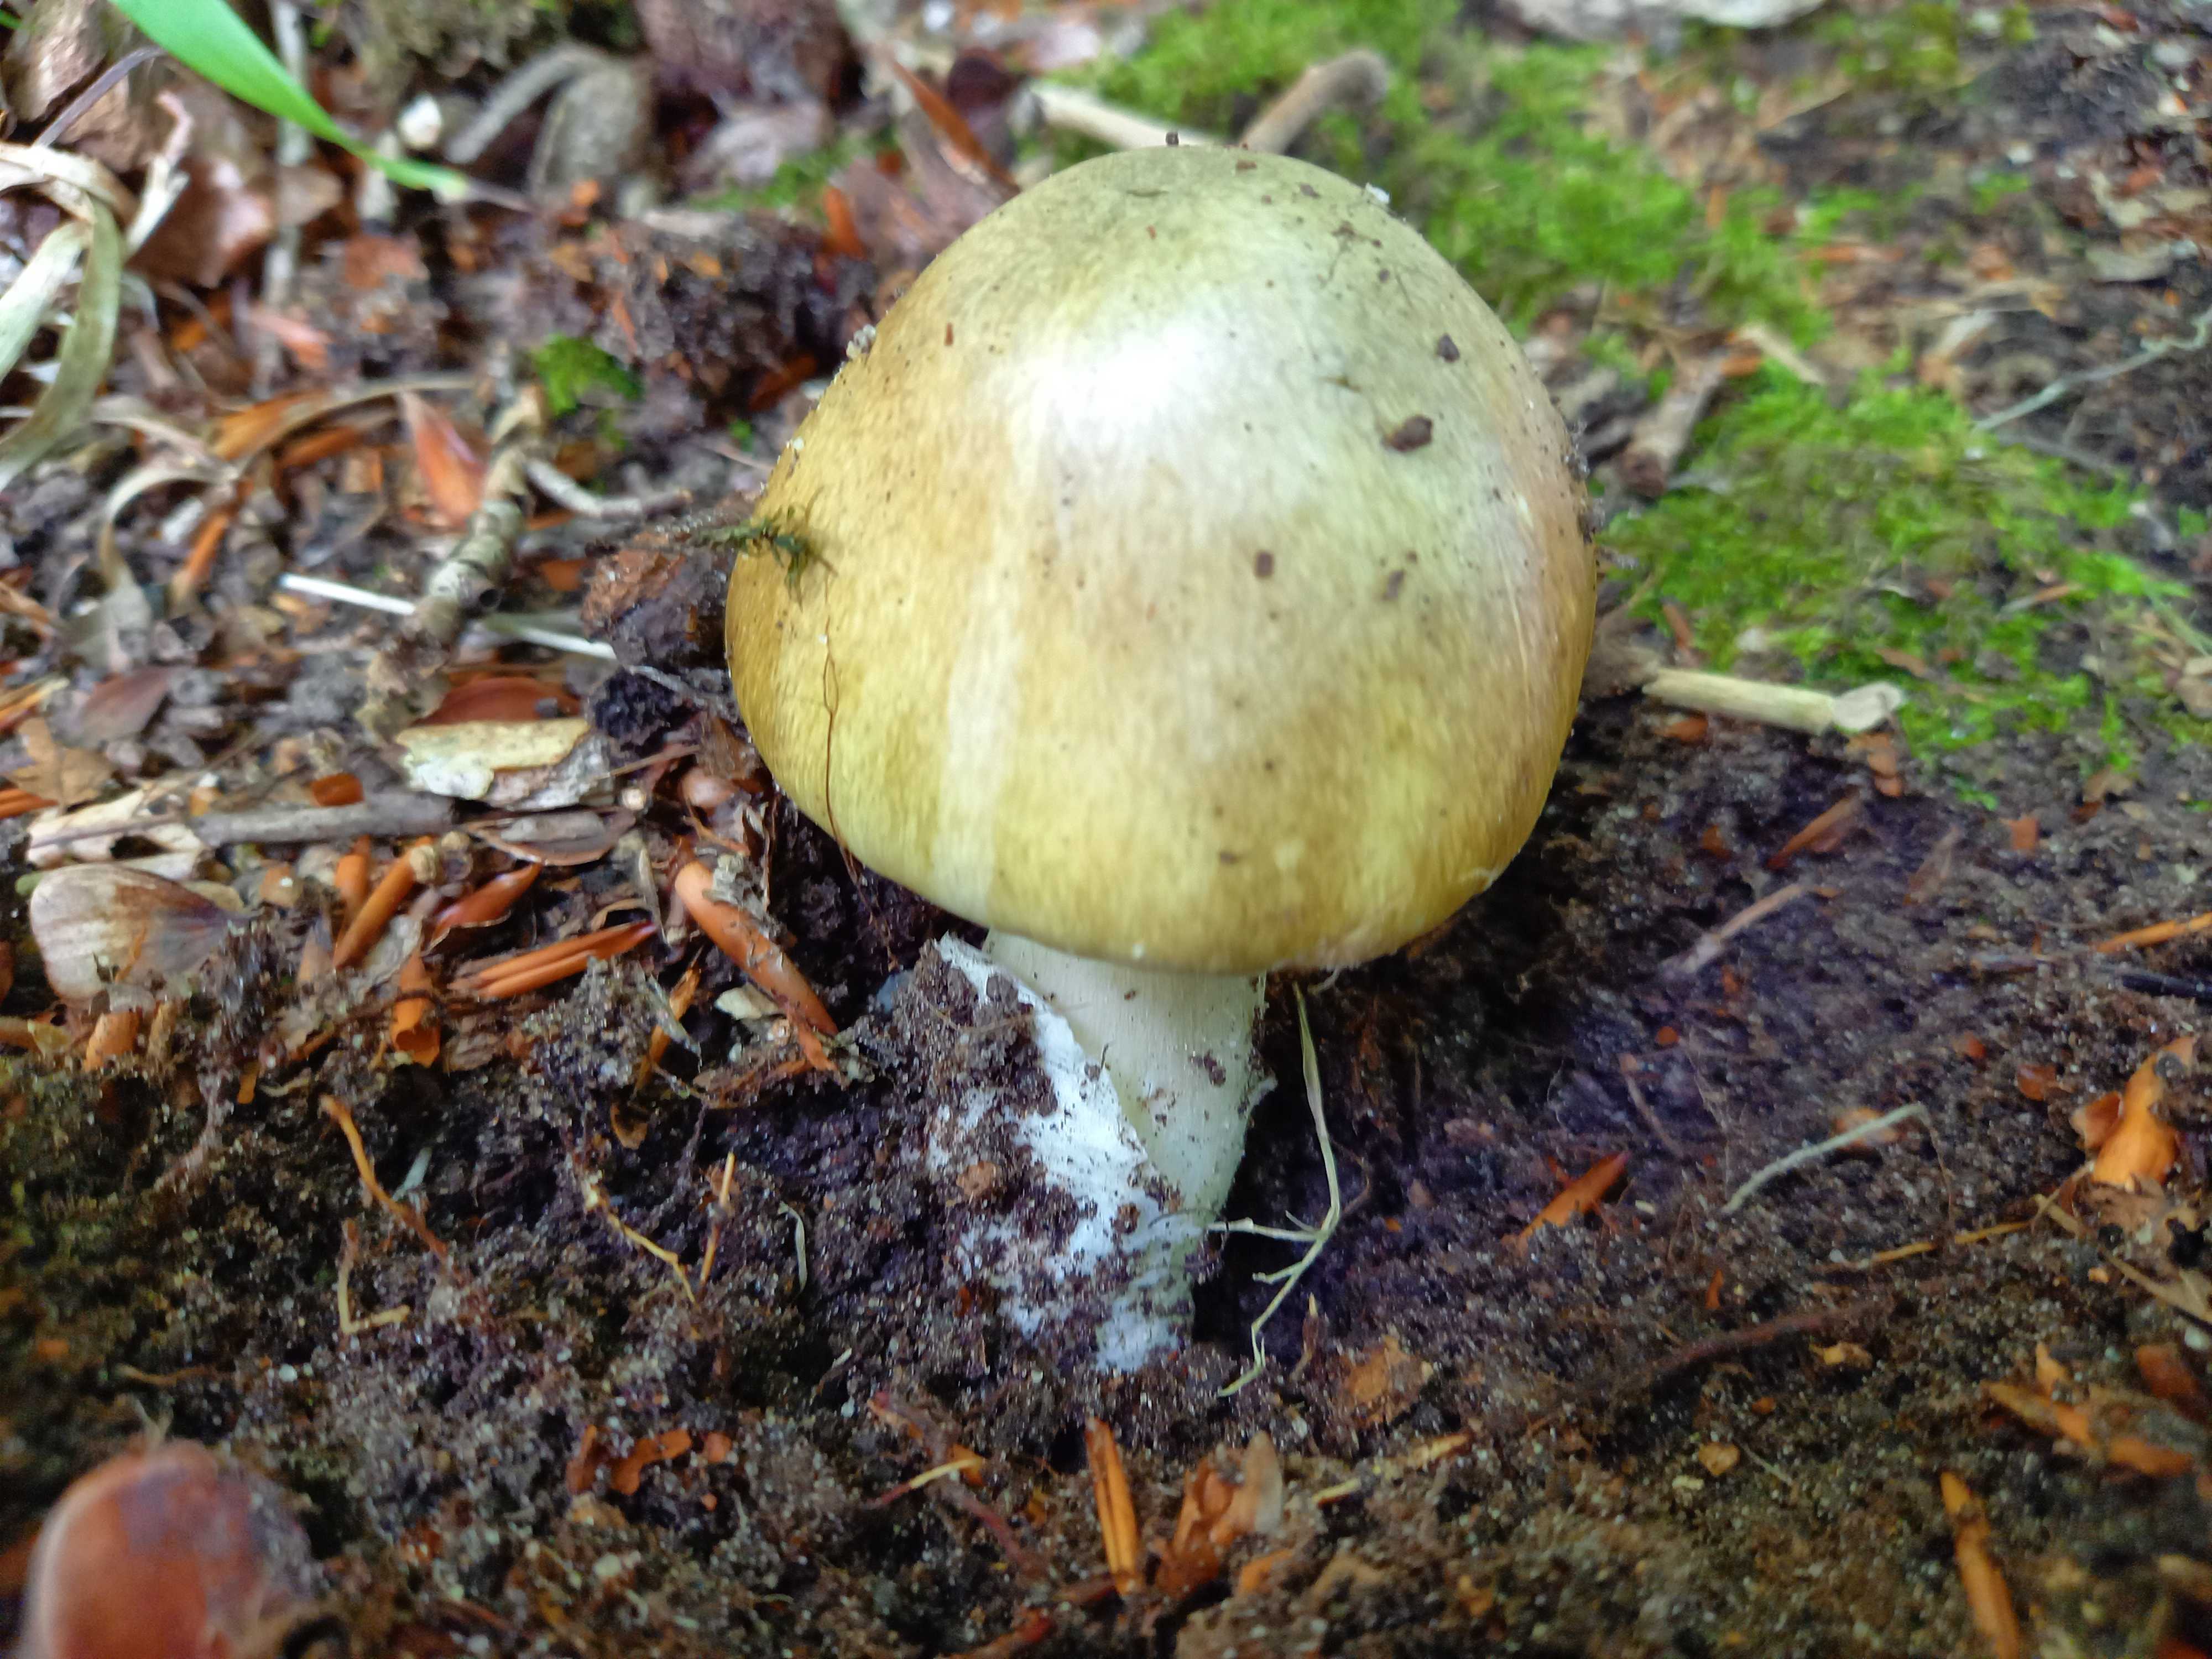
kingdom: Fungi
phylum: Basidiomycota
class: Agaricomycetes
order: Agaricales
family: Amanitaceae
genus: Amanita
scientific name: Amanita phalloides
